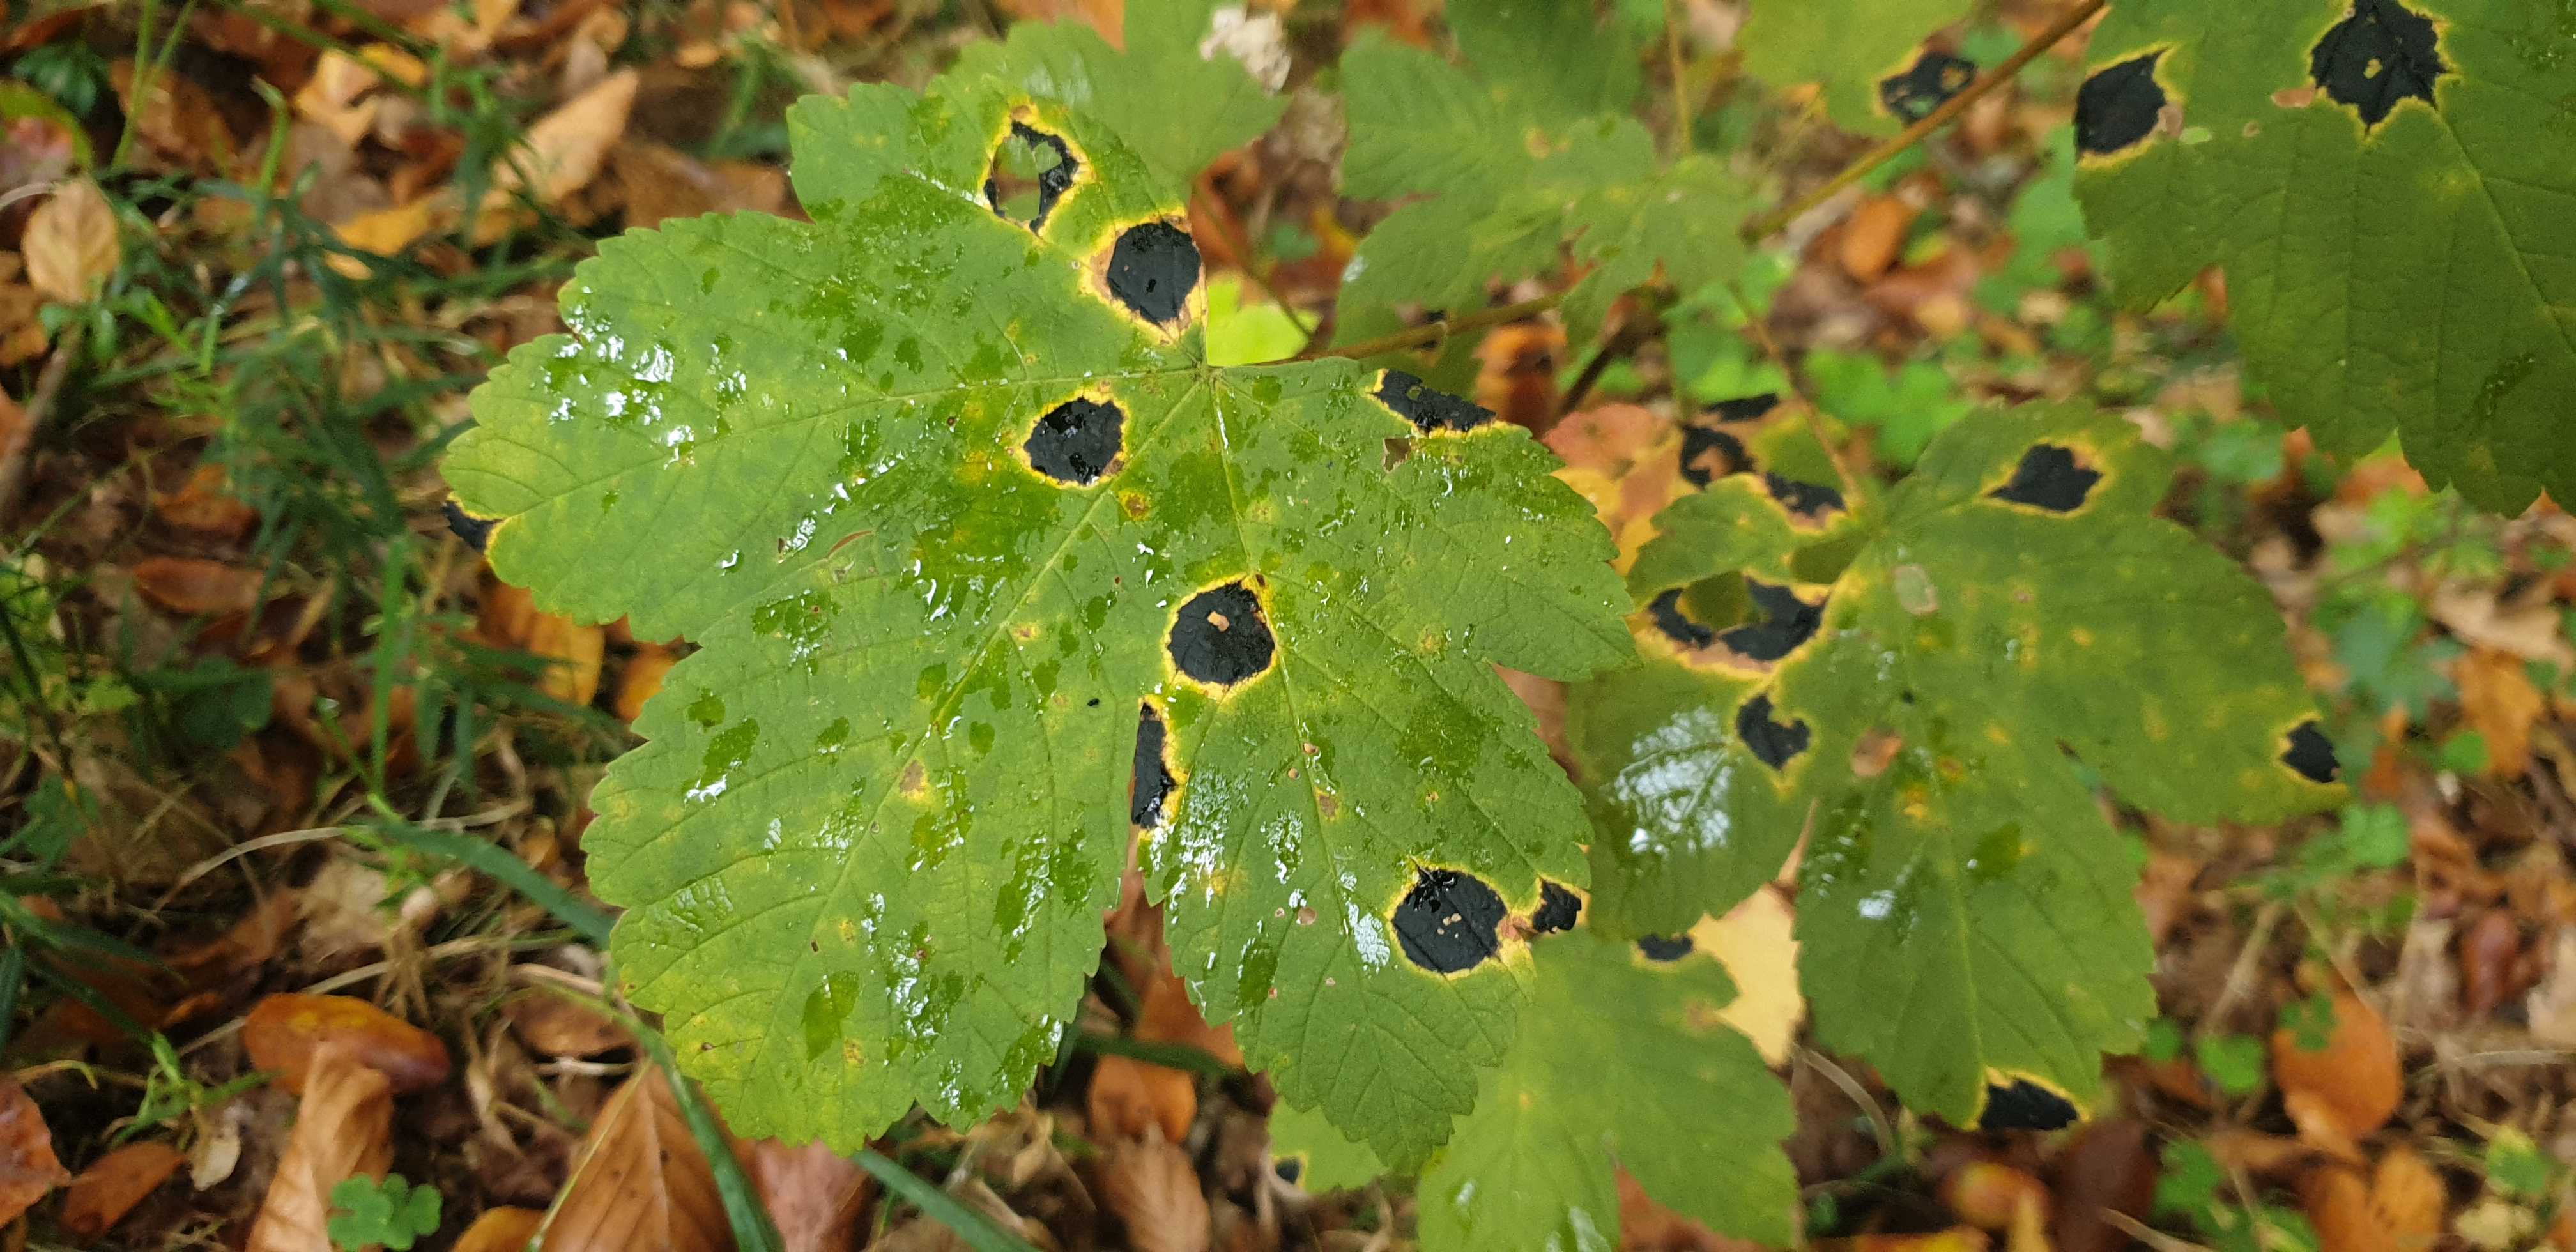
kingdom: Fungi
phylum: Ascomycota
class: Leotiomycetes
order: Rhytismatales
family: Rhytismataceae
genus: Rhytisma
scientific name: Rhytisma acerinum
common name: ahorn-rynkeplet
